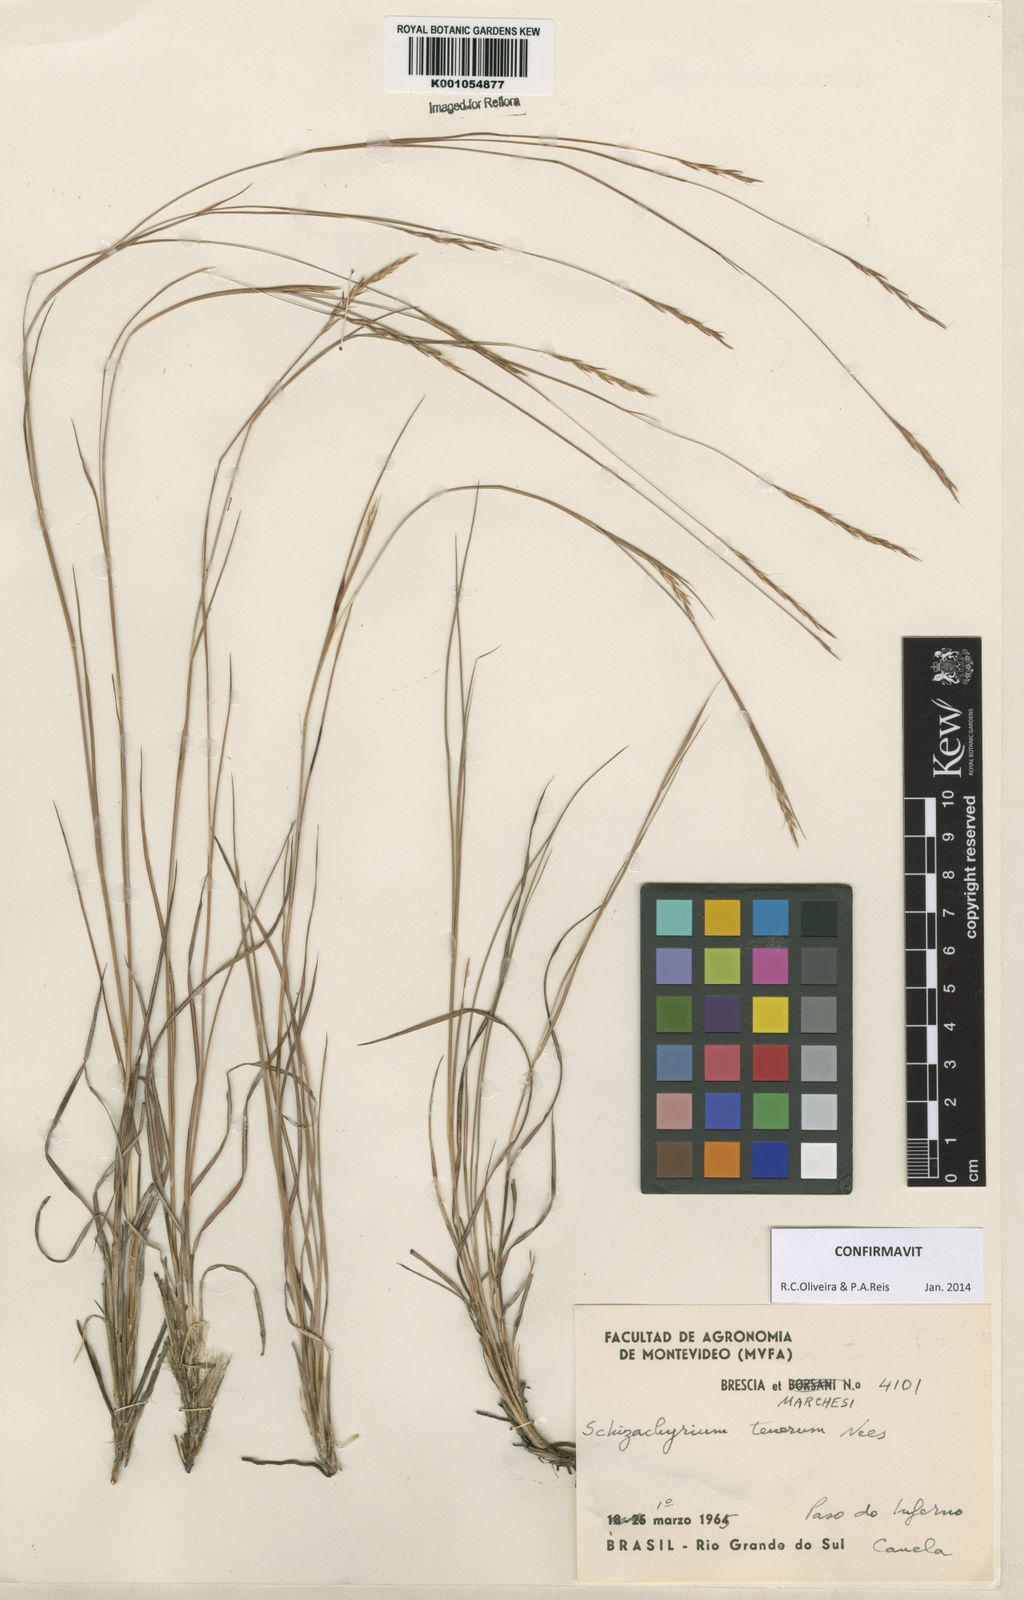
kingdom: Plantae
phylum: Tracheophyta
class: Liliopsida
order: Poales
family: Poaceae
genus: Andropogon
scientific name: Andropogon tener
